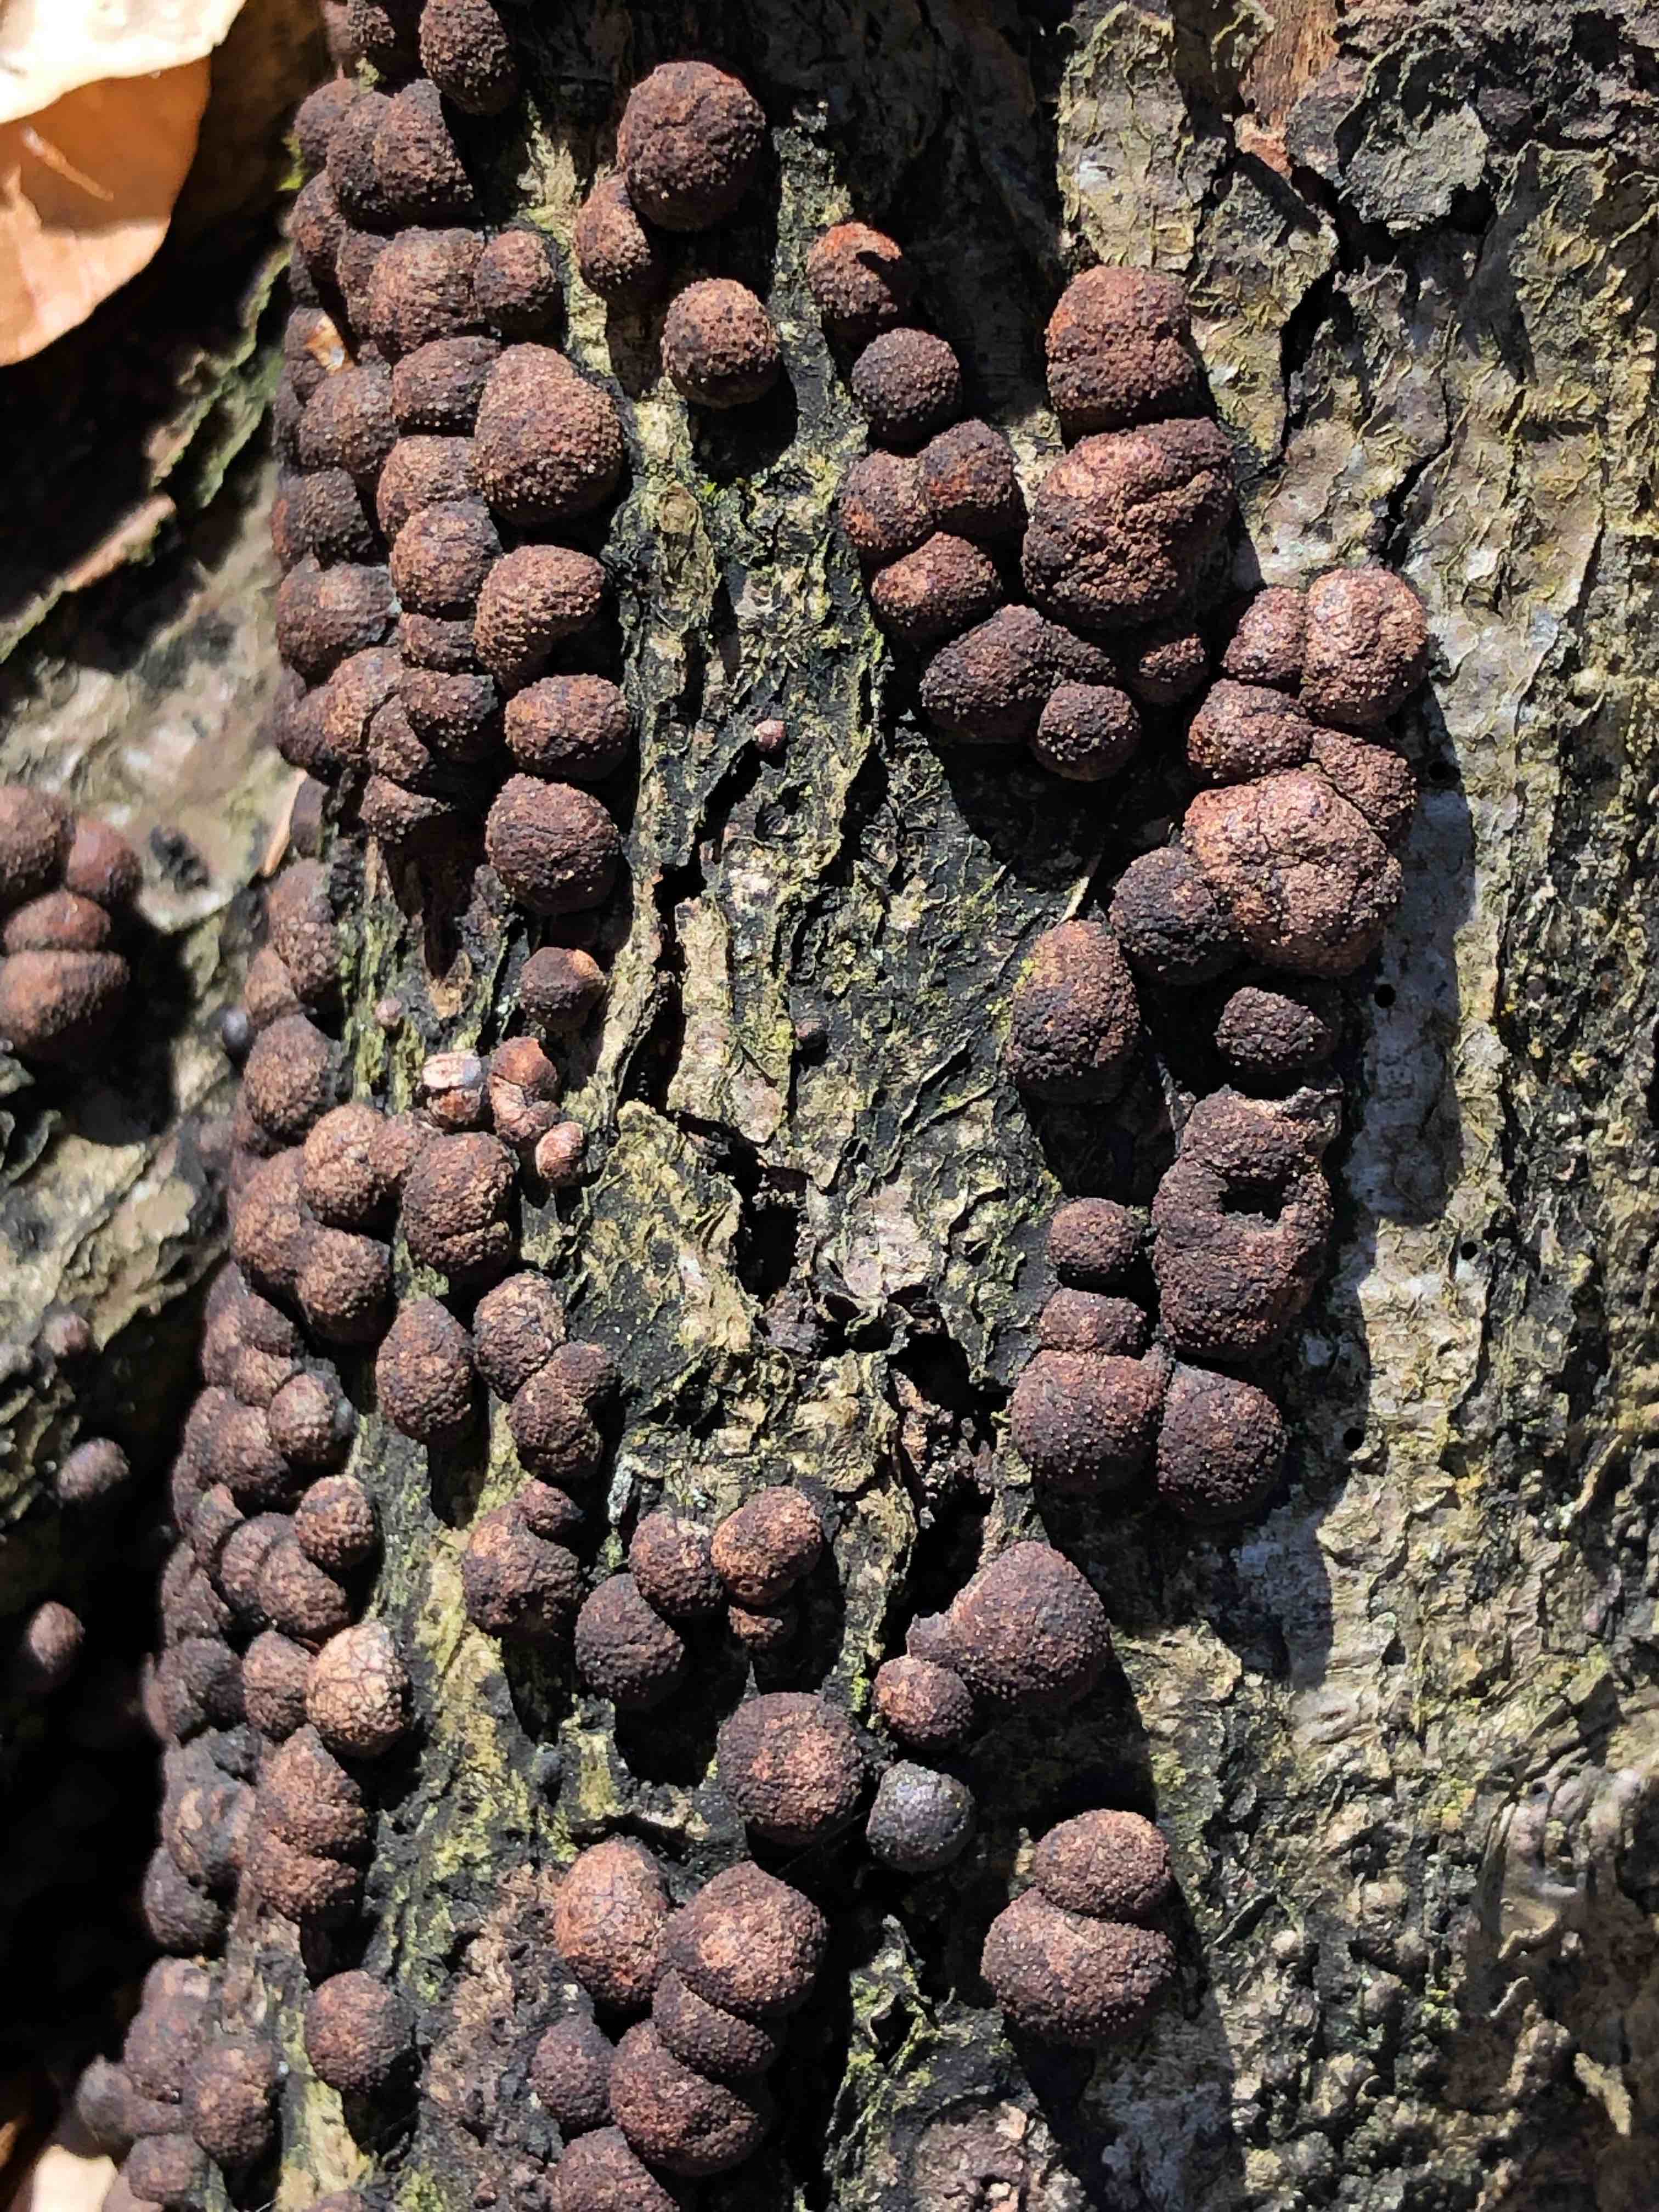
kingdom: Fungi
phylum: Ascomycota
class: Sordariomycetes
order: Xylariales
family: Hypoxylaceae
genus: Hypoxylon
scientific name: Hypoxylon fragiforme
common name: kuljordbær
